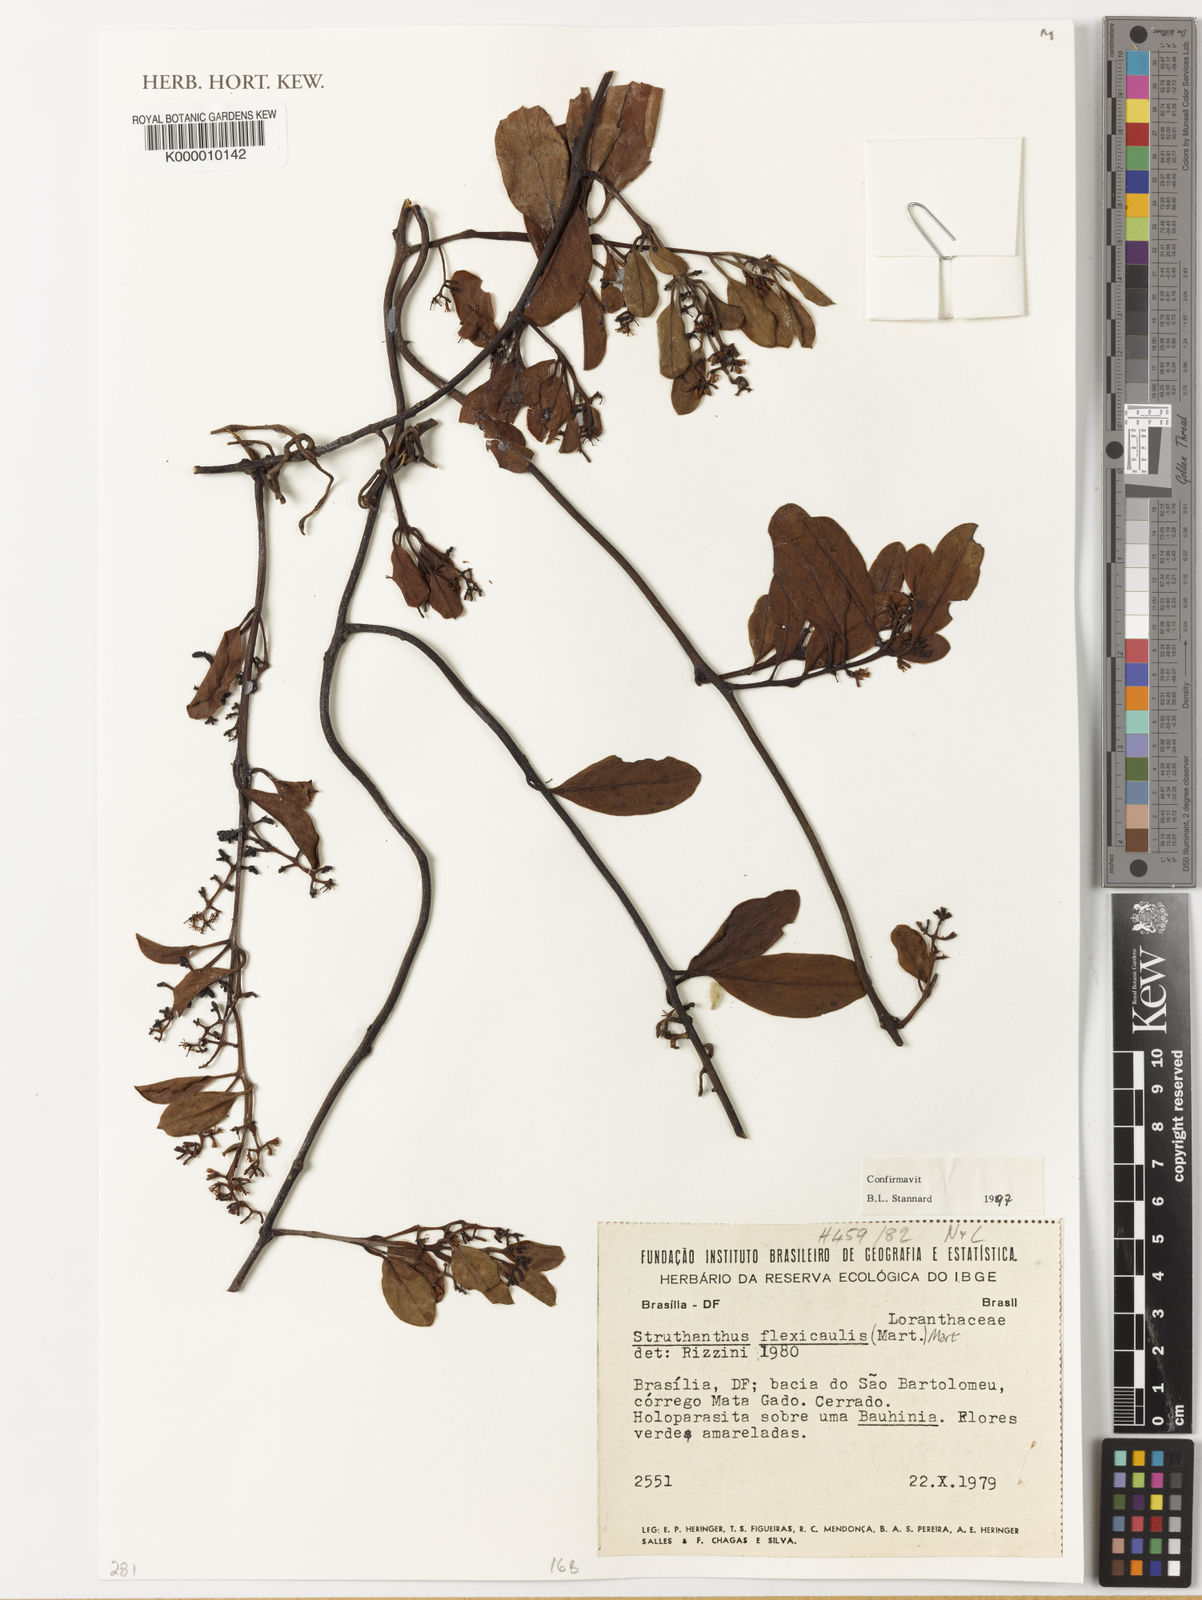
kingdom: Plantae
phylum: Tracheophyta
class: Magnoliopsida
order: Santalales
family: Loranthaceae
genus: Struthanthus
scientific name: Struthanthus flexicaulis
